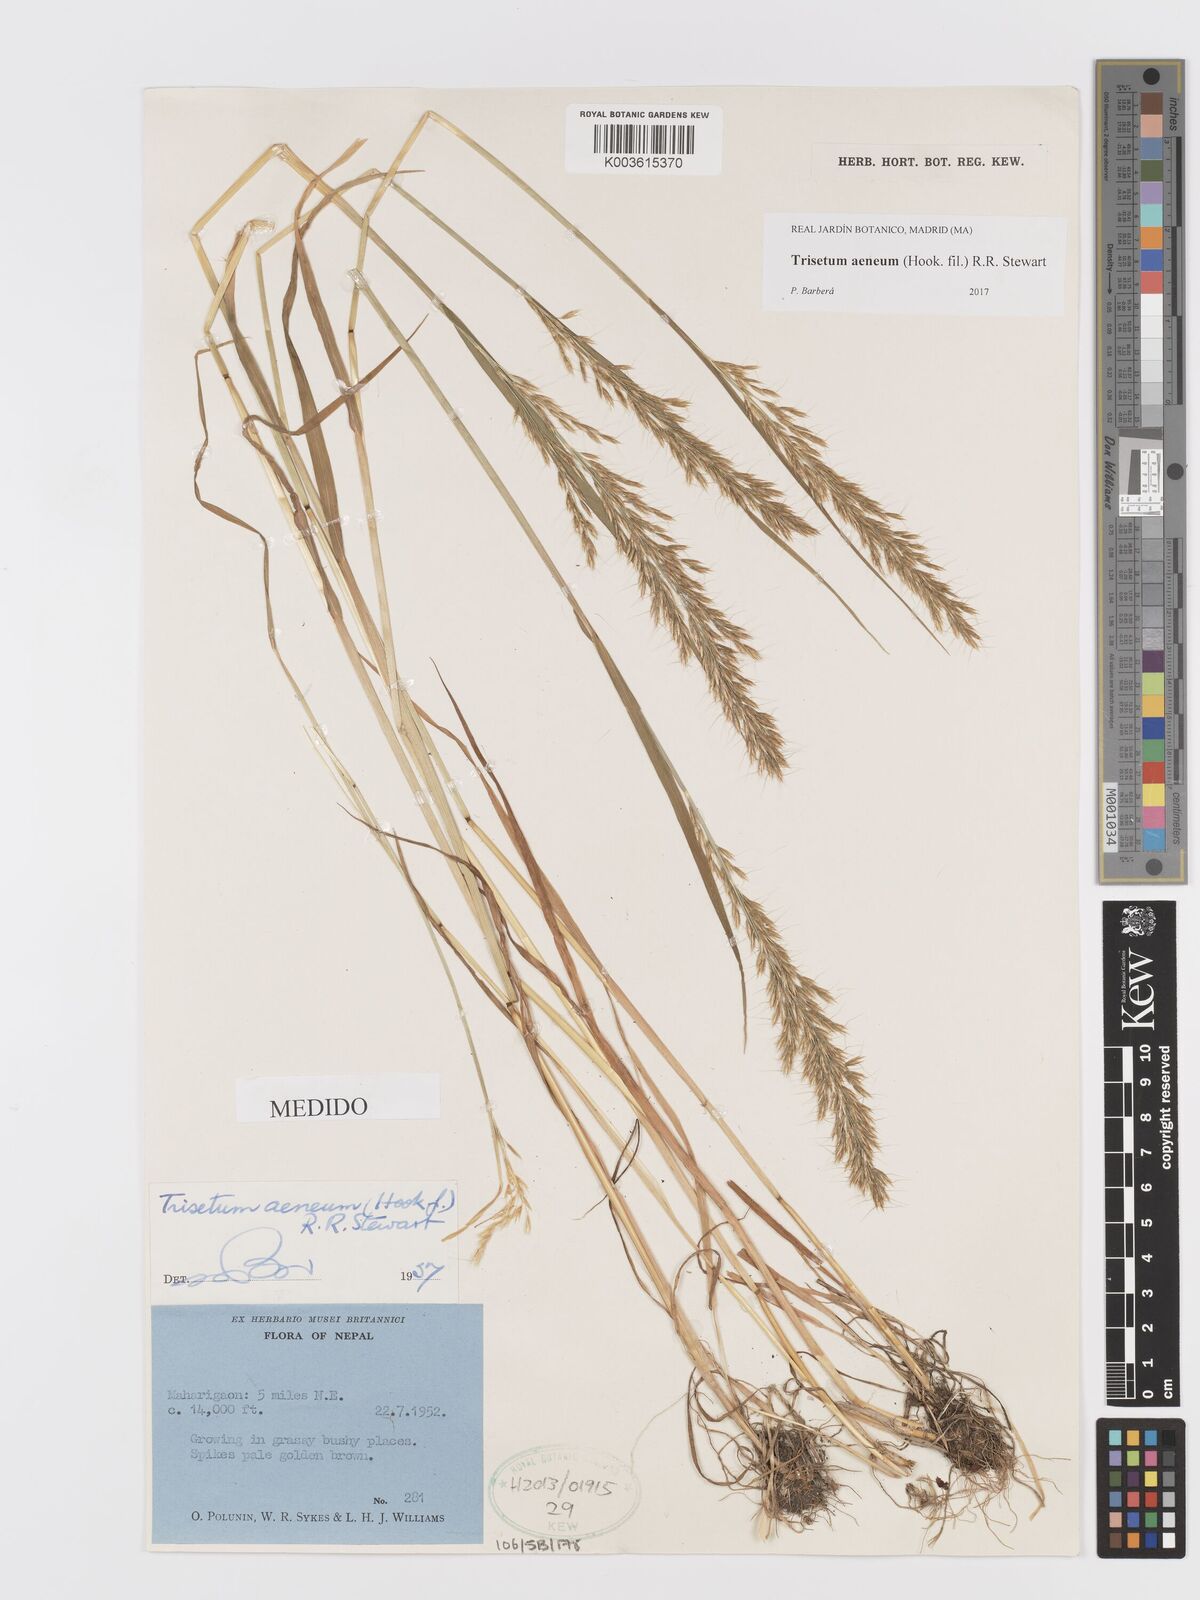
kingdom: Plantae
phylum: Tracheophyta
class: Liliopsida
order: Poales
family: Poaceae
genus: Sibirotrisetum
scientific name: Sibirotrisetum aeneum
